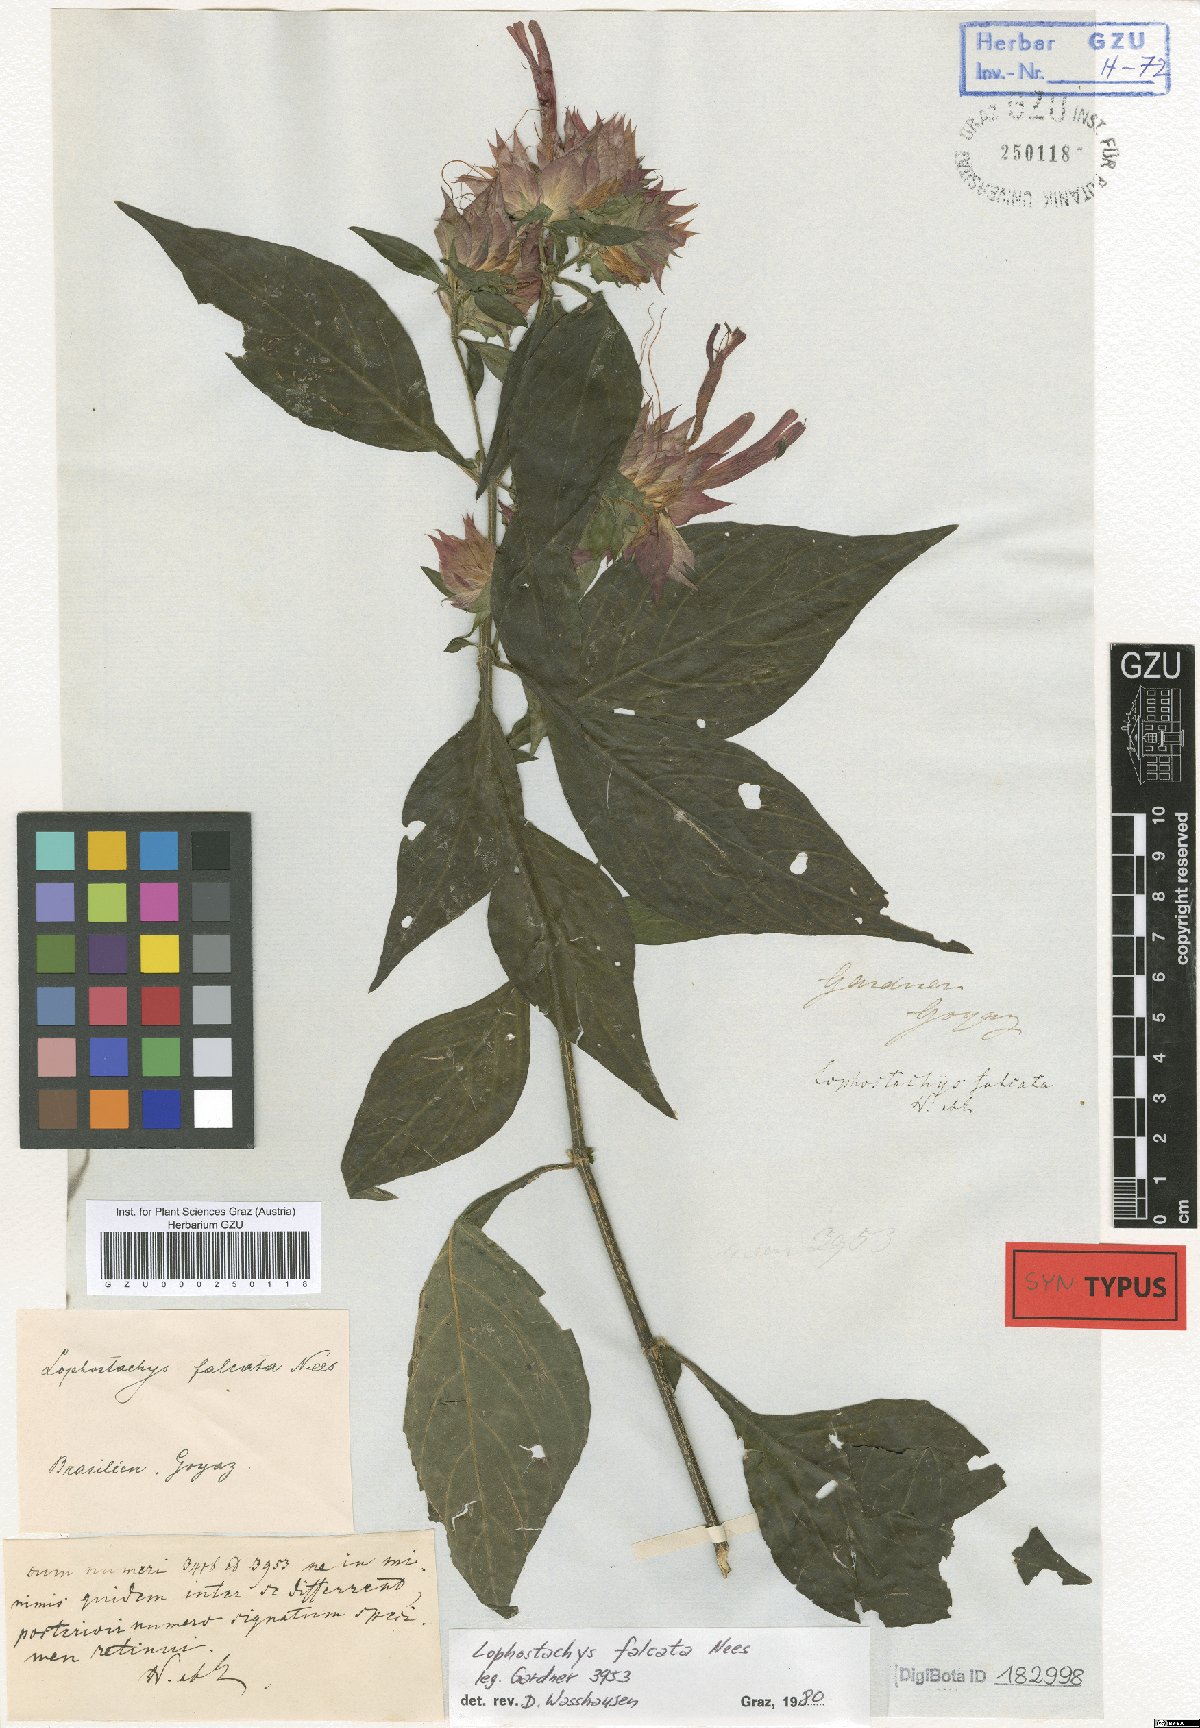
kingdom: Plantae
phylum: Tracheophyta
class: Magnoliopsida
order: Lamiales
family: Acanthaceae
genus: Lepidagathis
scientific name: Lepidagathis Lophostachys falcata
